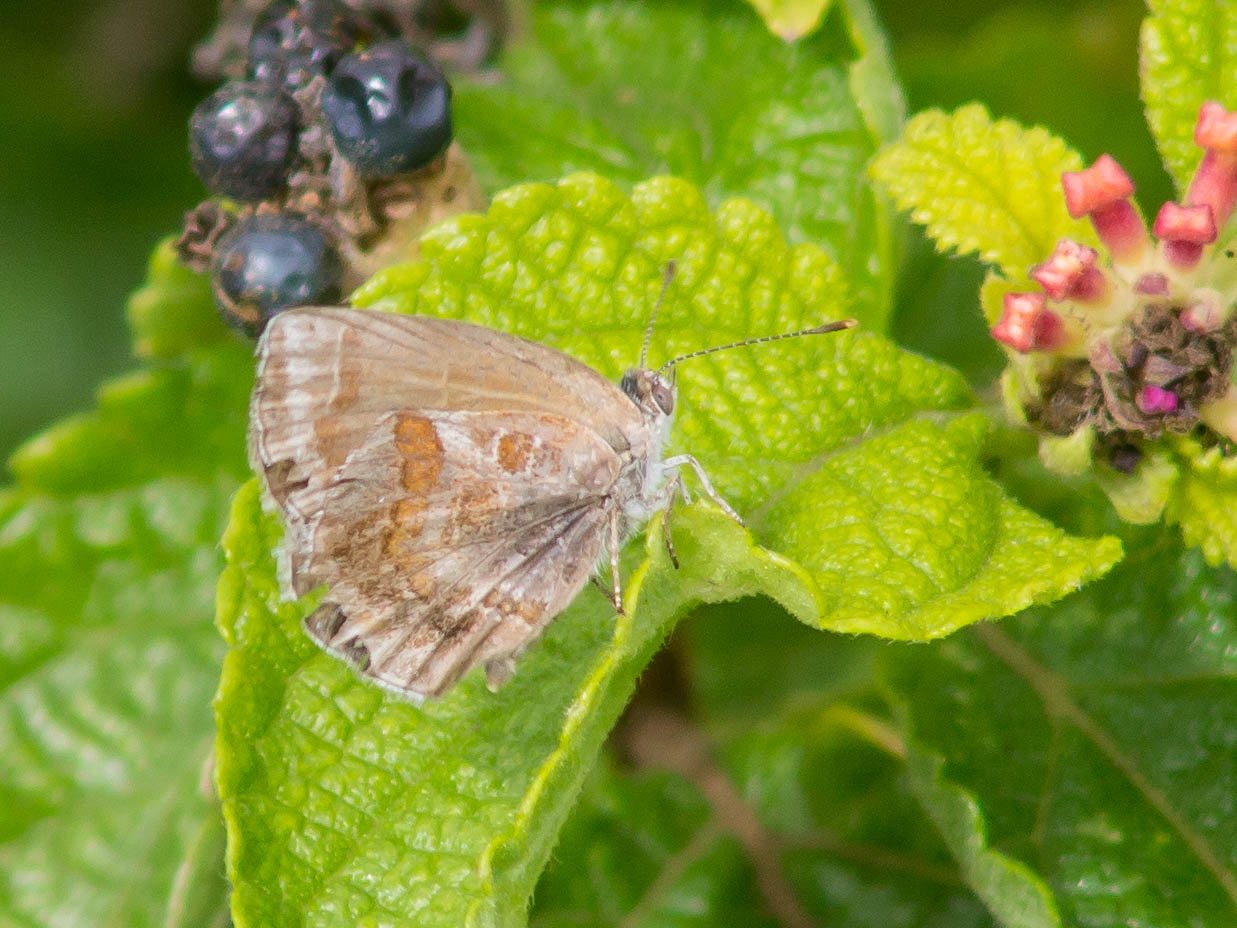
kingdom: Animalia
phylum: Arthropoda
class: Insecta
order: Lepidoptera
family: Lycaenidae
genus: Strymon
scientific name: Strymon bazochii
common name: Lantana Scrub-Hairstreak
